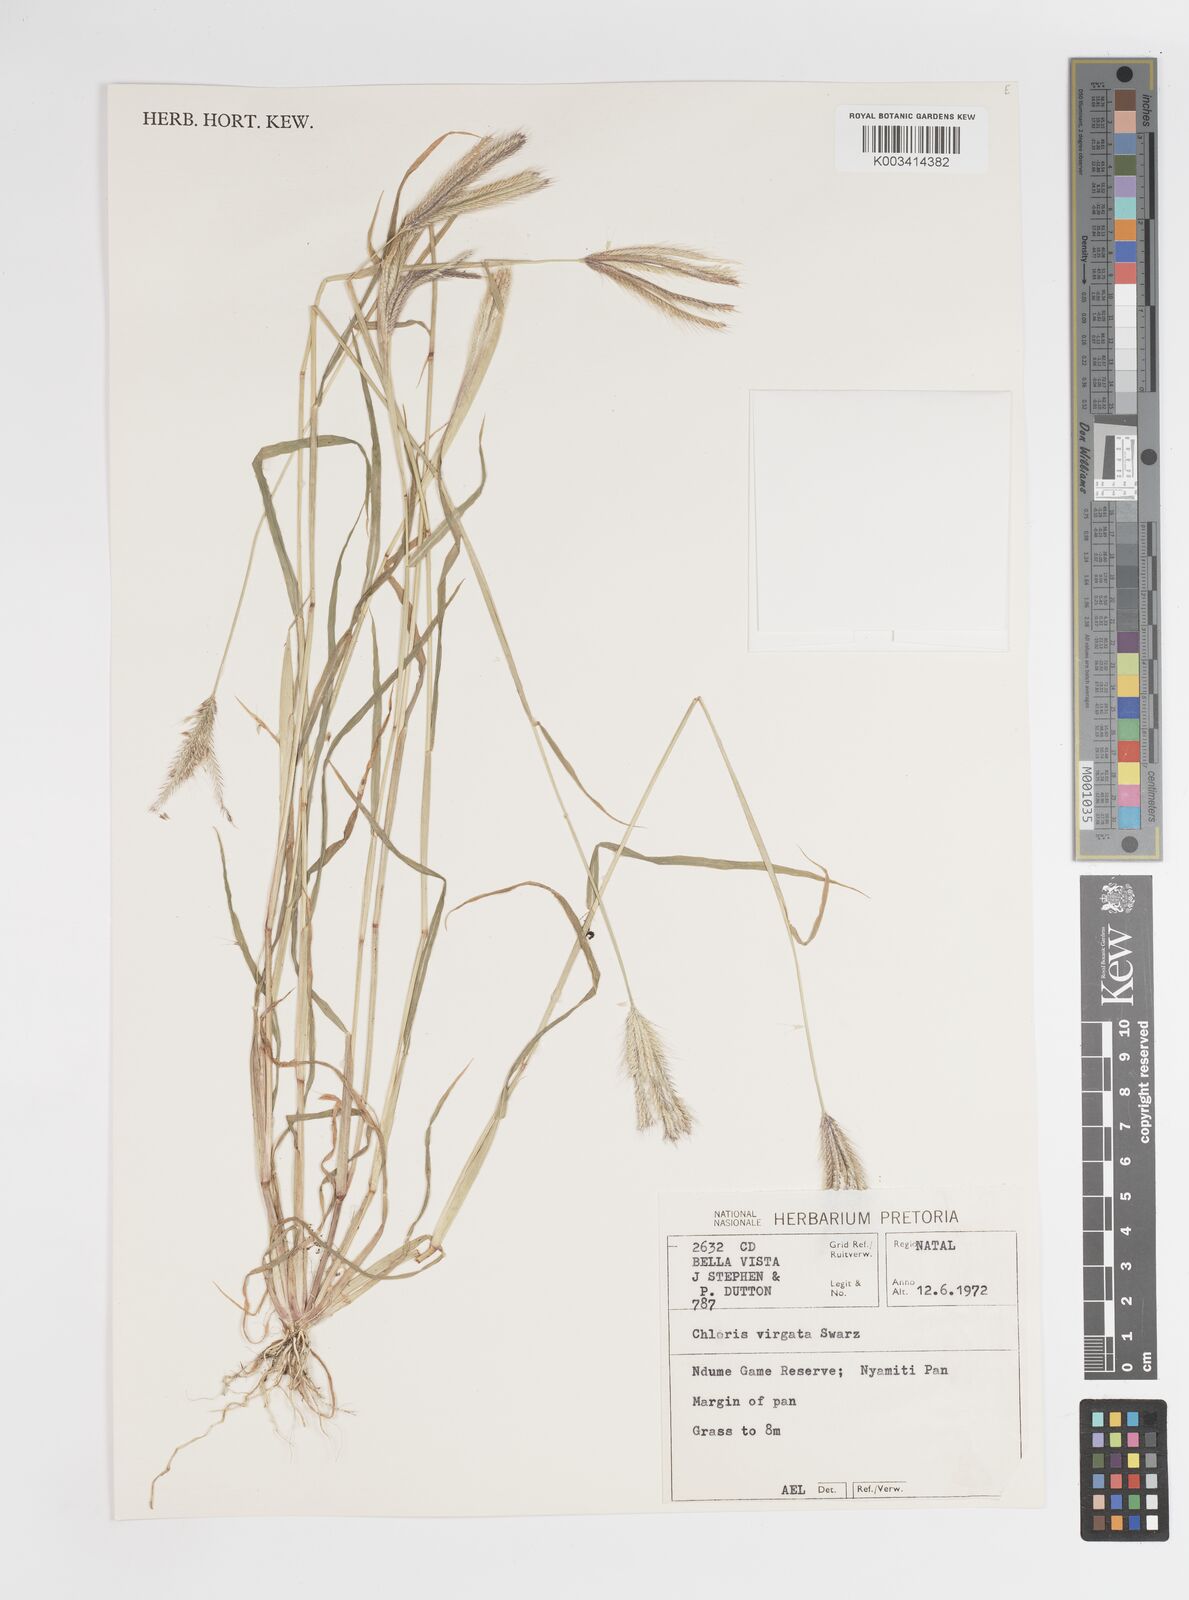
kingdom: Plantae
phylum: Tracheophyta
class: Liliopsida
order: Poales
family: Poaceae
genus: Chloris
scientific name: Chloris virgata
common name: Feathery rhodes-grass
